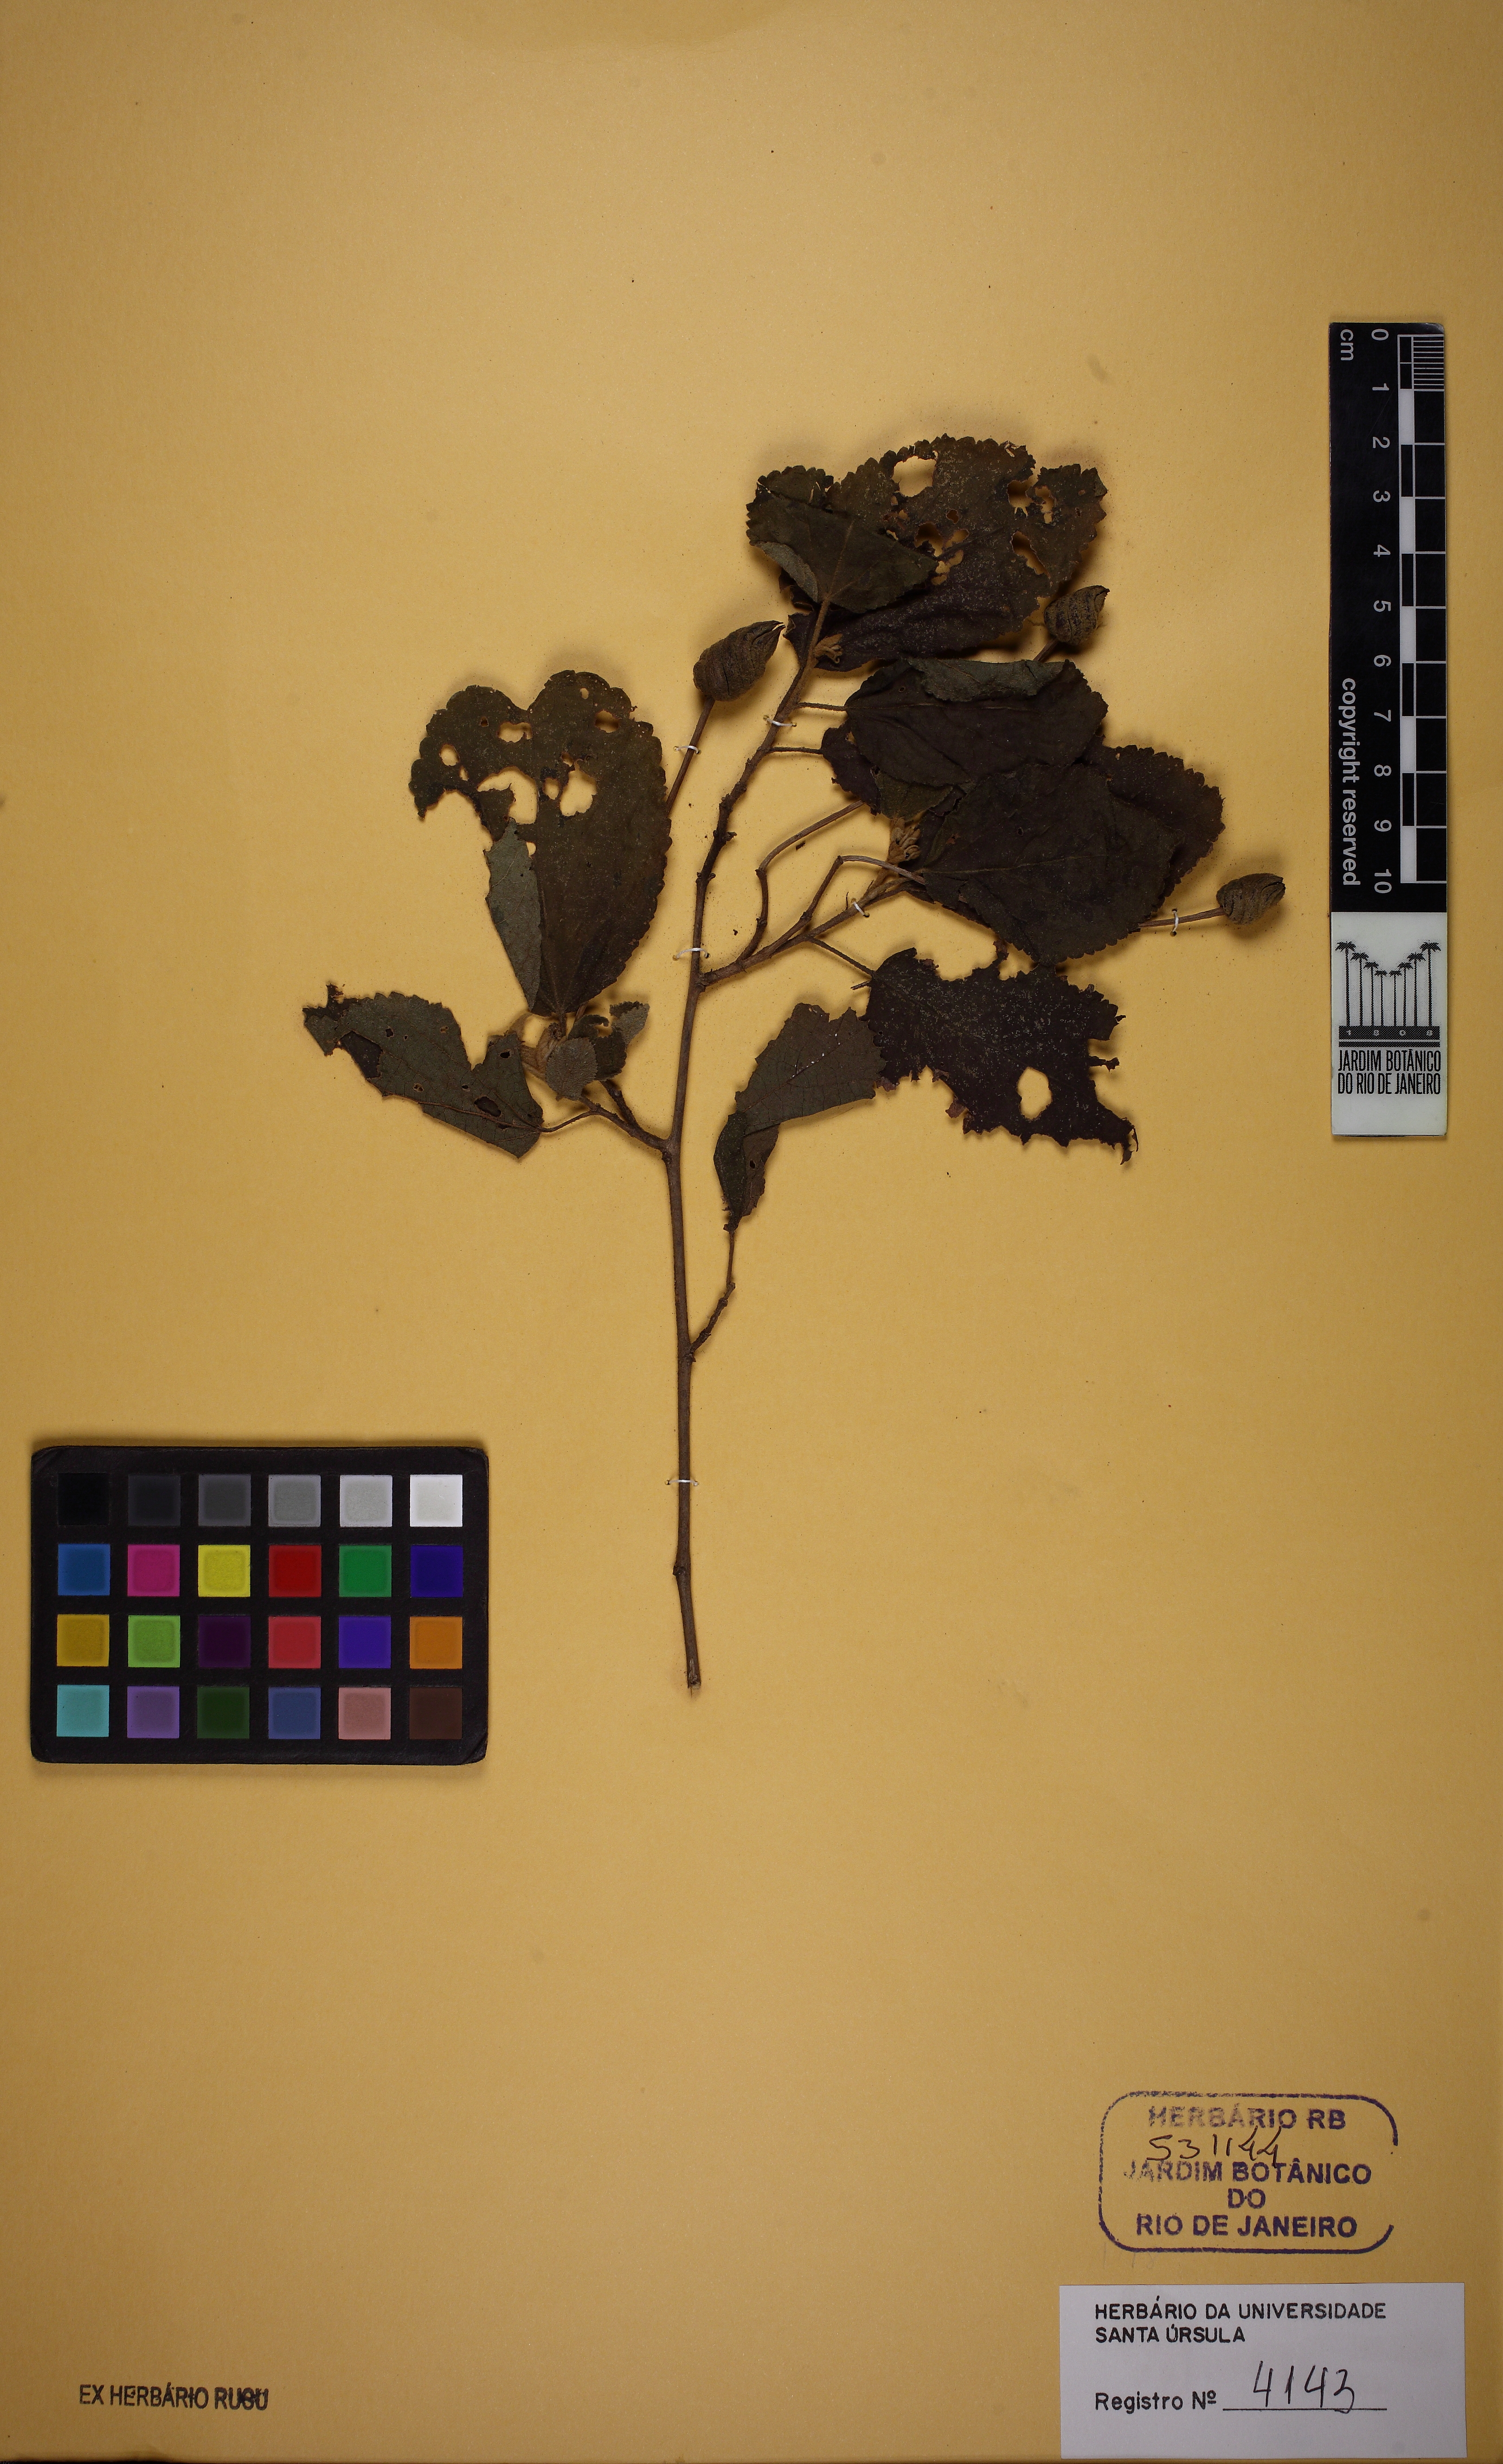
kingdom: Plantae
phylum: Tracheophyta
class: Magnoliopsida
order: Malvales
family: Malvaceae
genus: Helicteres
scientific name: Helicteres sacarolha
